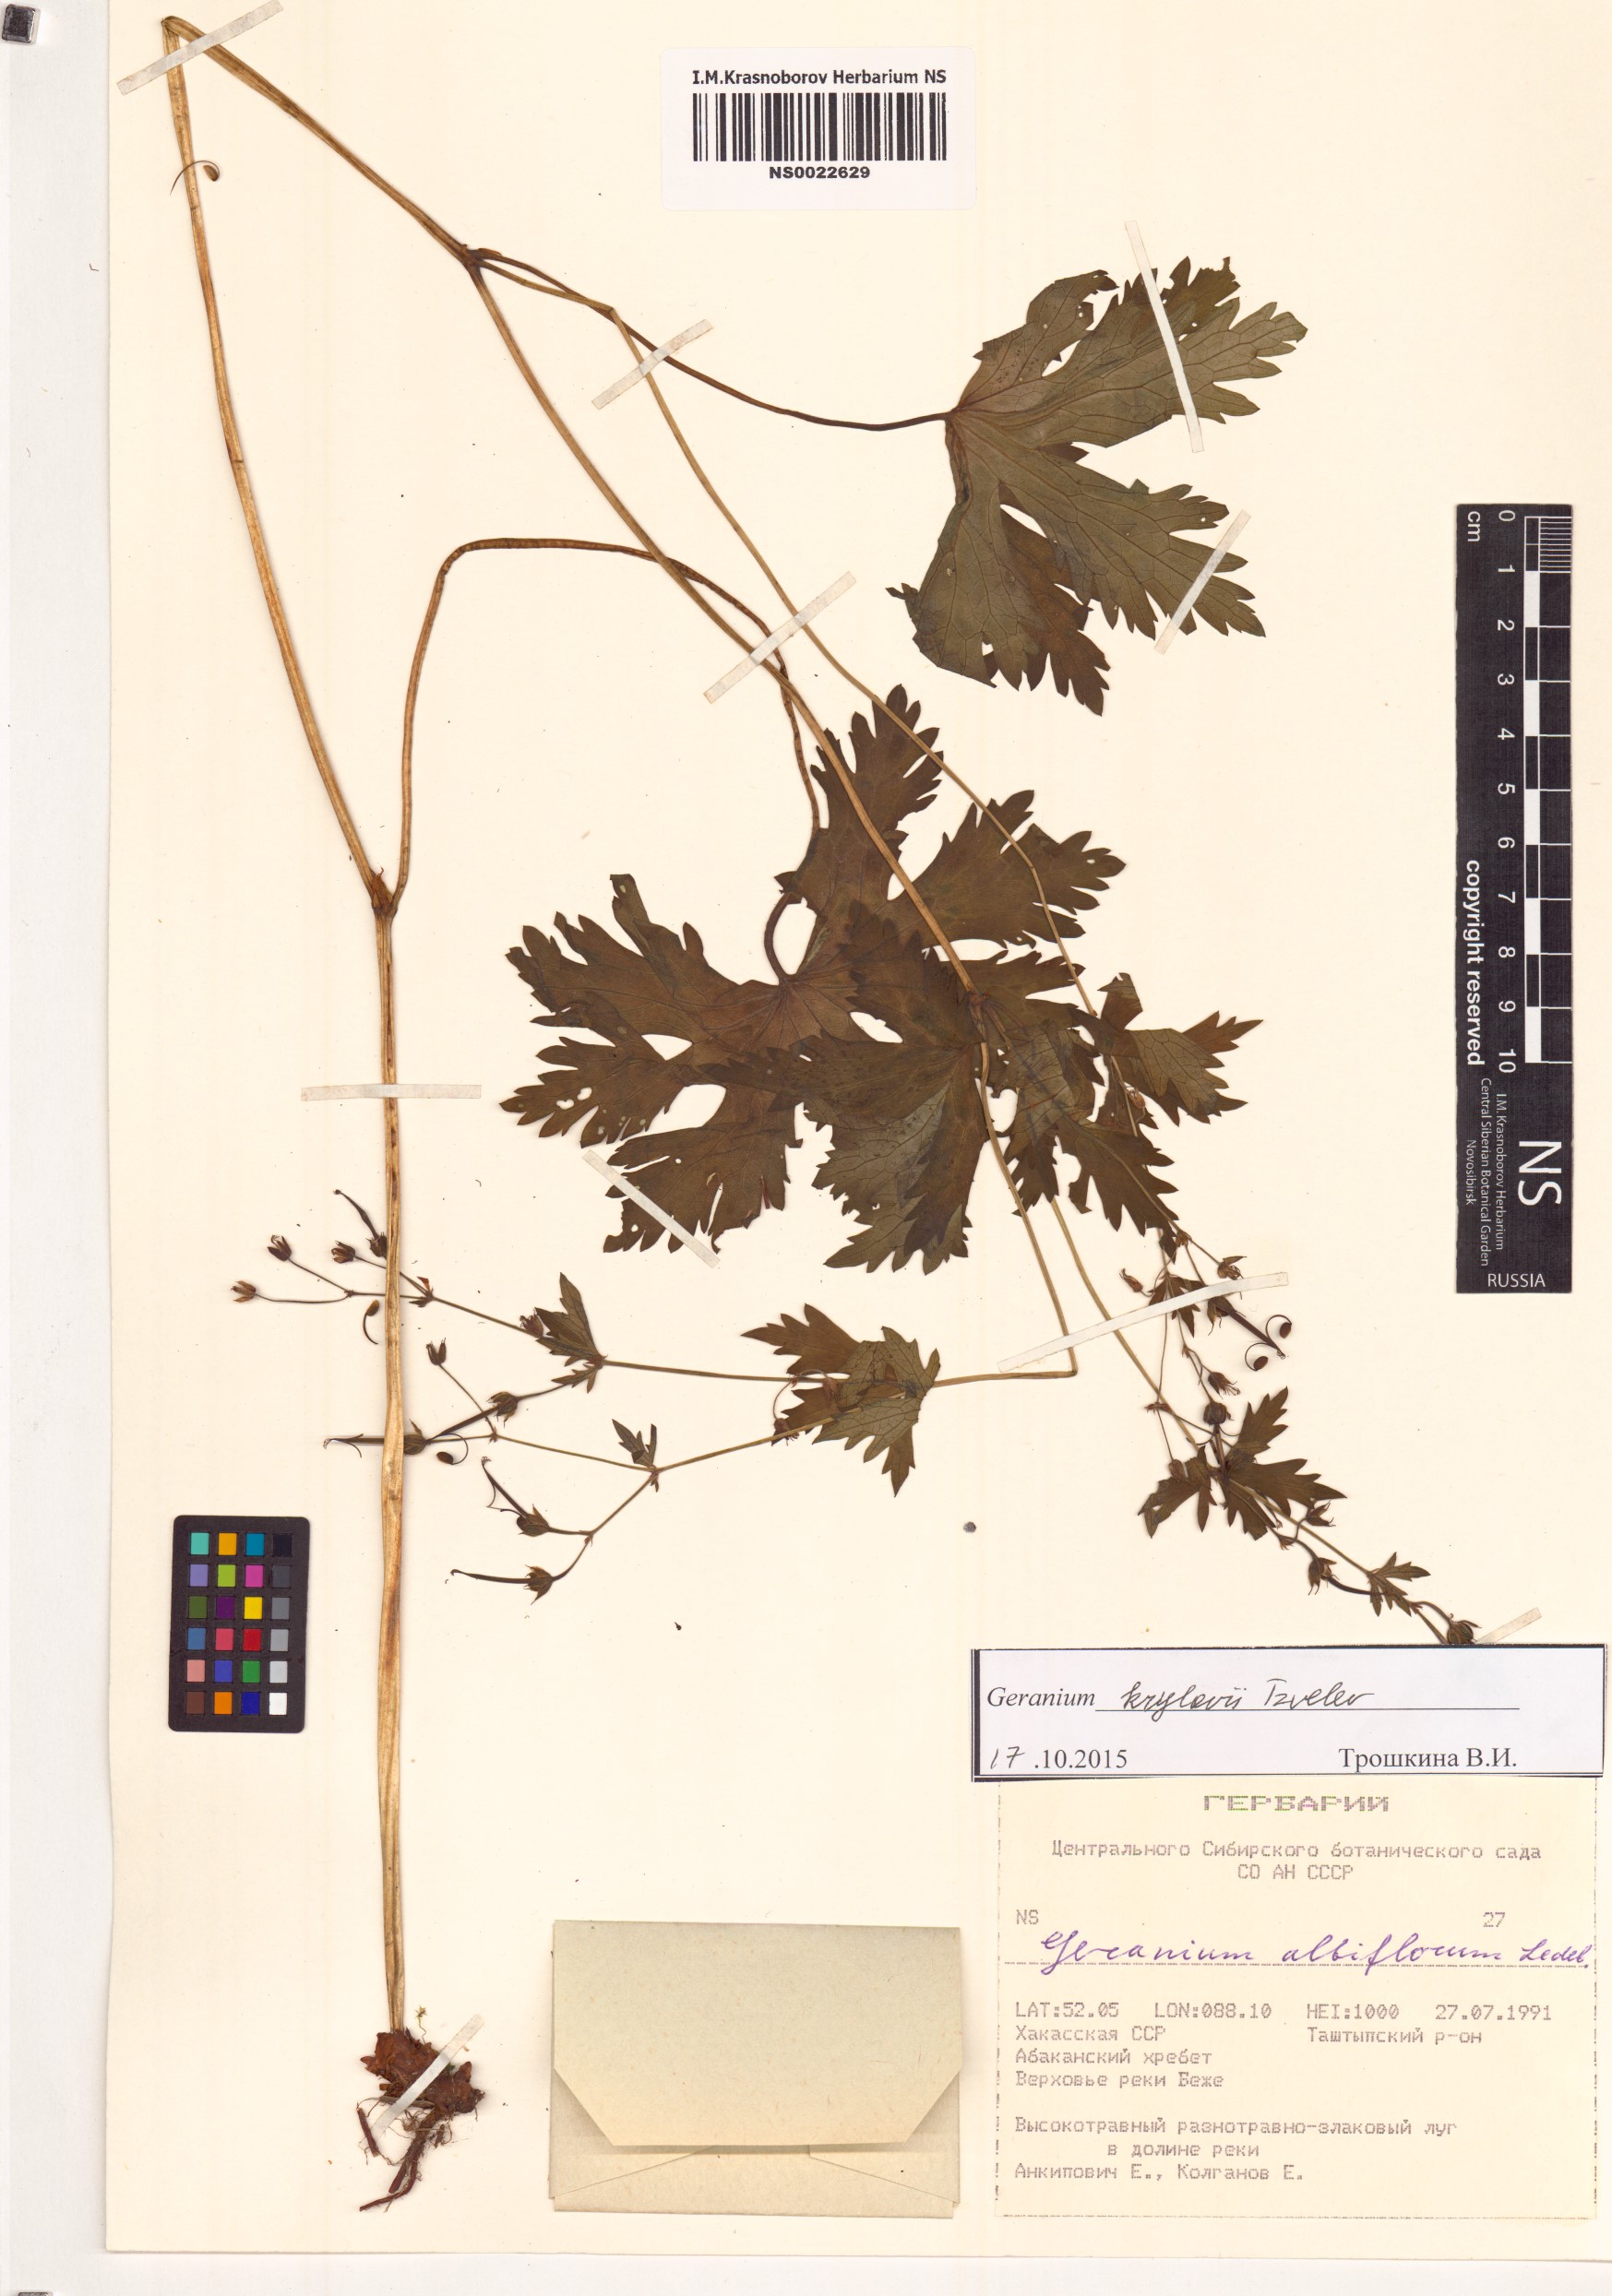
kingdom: Plantae
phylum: Tracheophyta
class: Magnoliopsida
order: Geraniales
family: Geraniaceae
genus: Geranium
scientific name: Geranium sylvaticum
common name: Wood crane's-bill
